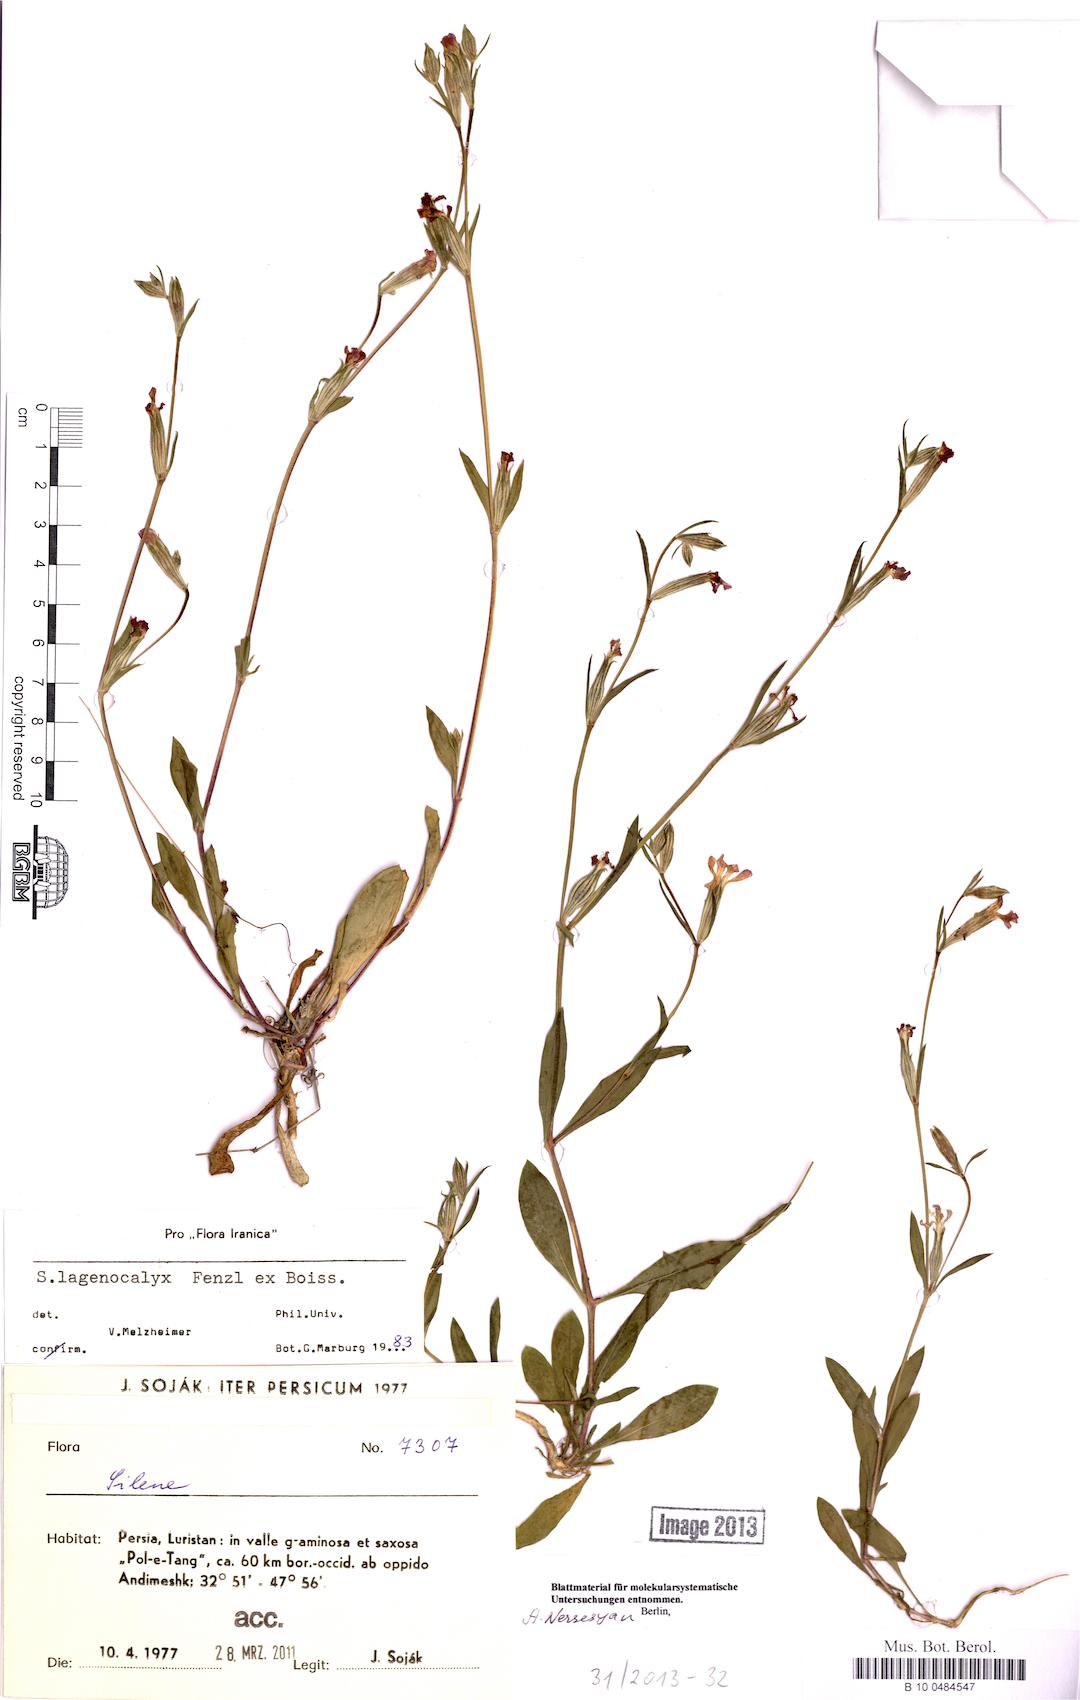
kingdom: Plantae
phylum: Tracheophyta
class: Magnoliopsida
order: Caryophyllales
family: Caryophyllaceae
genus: Silene
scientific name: Silene lagenocalyx
